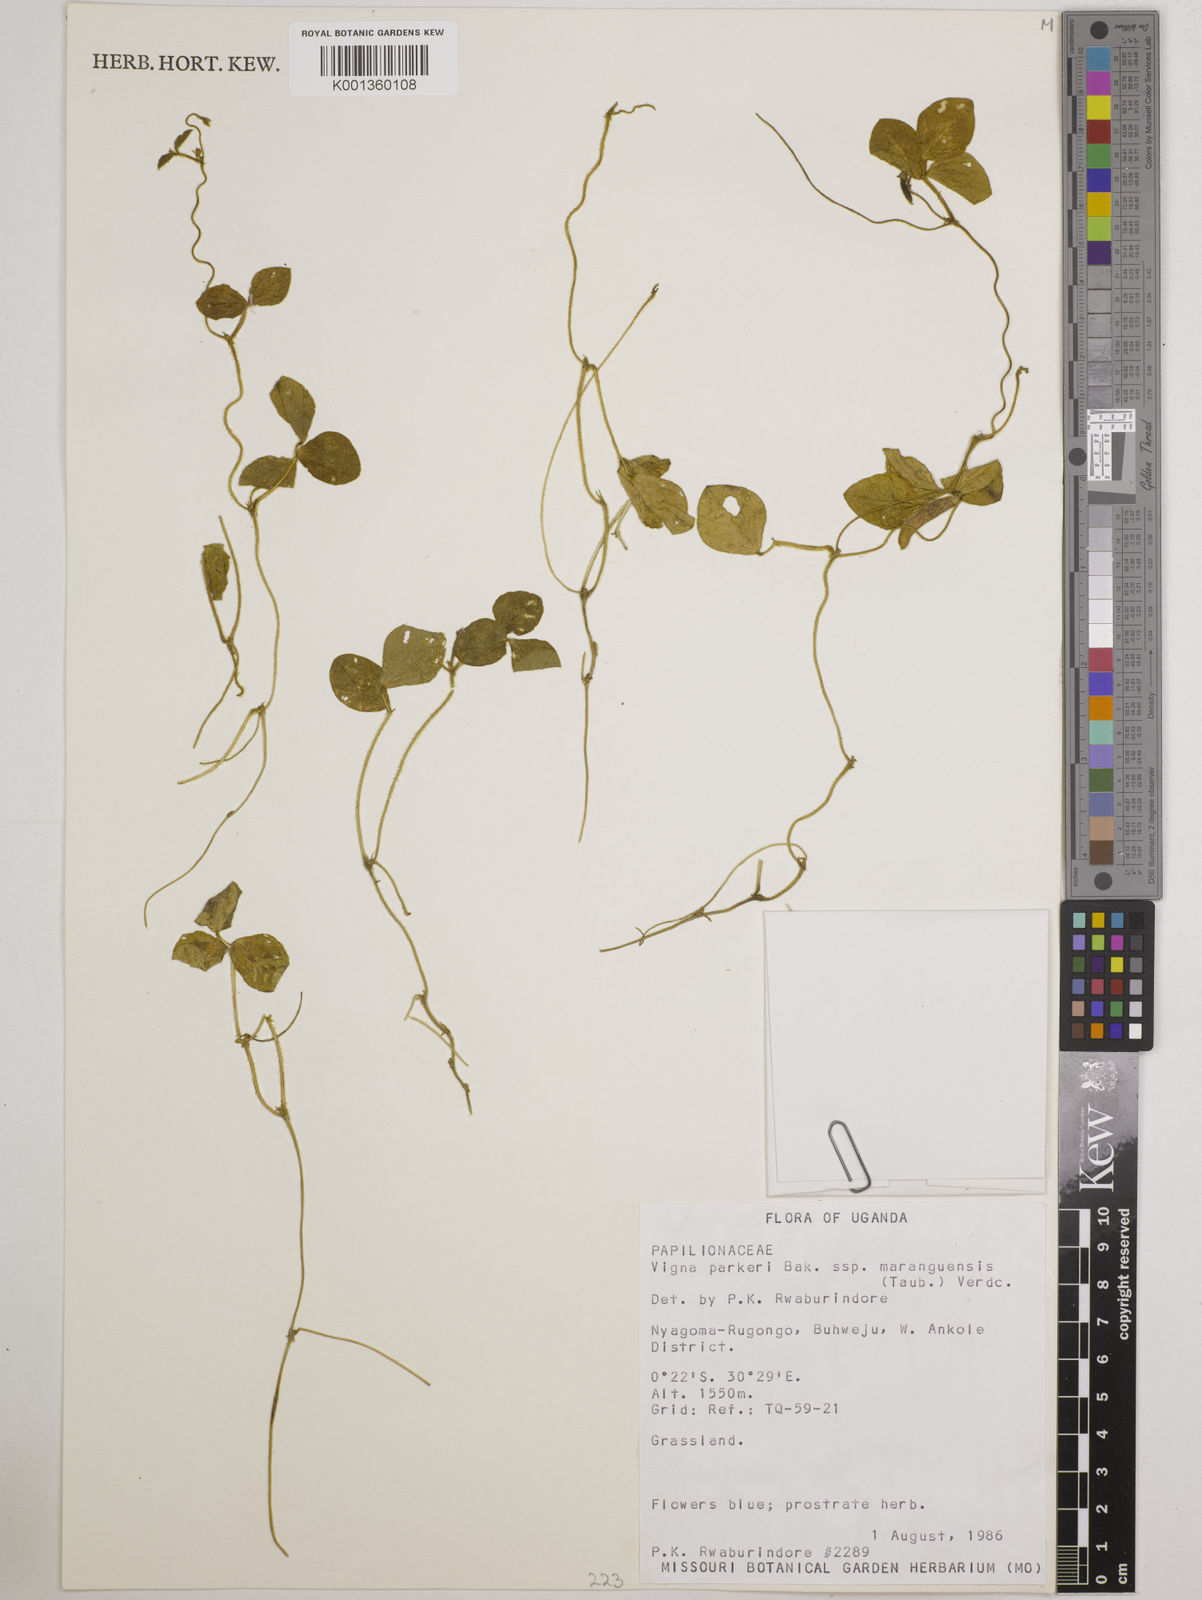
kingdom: Plantae
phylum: Tracheophyta
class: Magnoliopsida
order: Fabales
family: Fabaceae
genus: Vigna
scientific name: Vigna parkeri
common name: Creeping vigna
